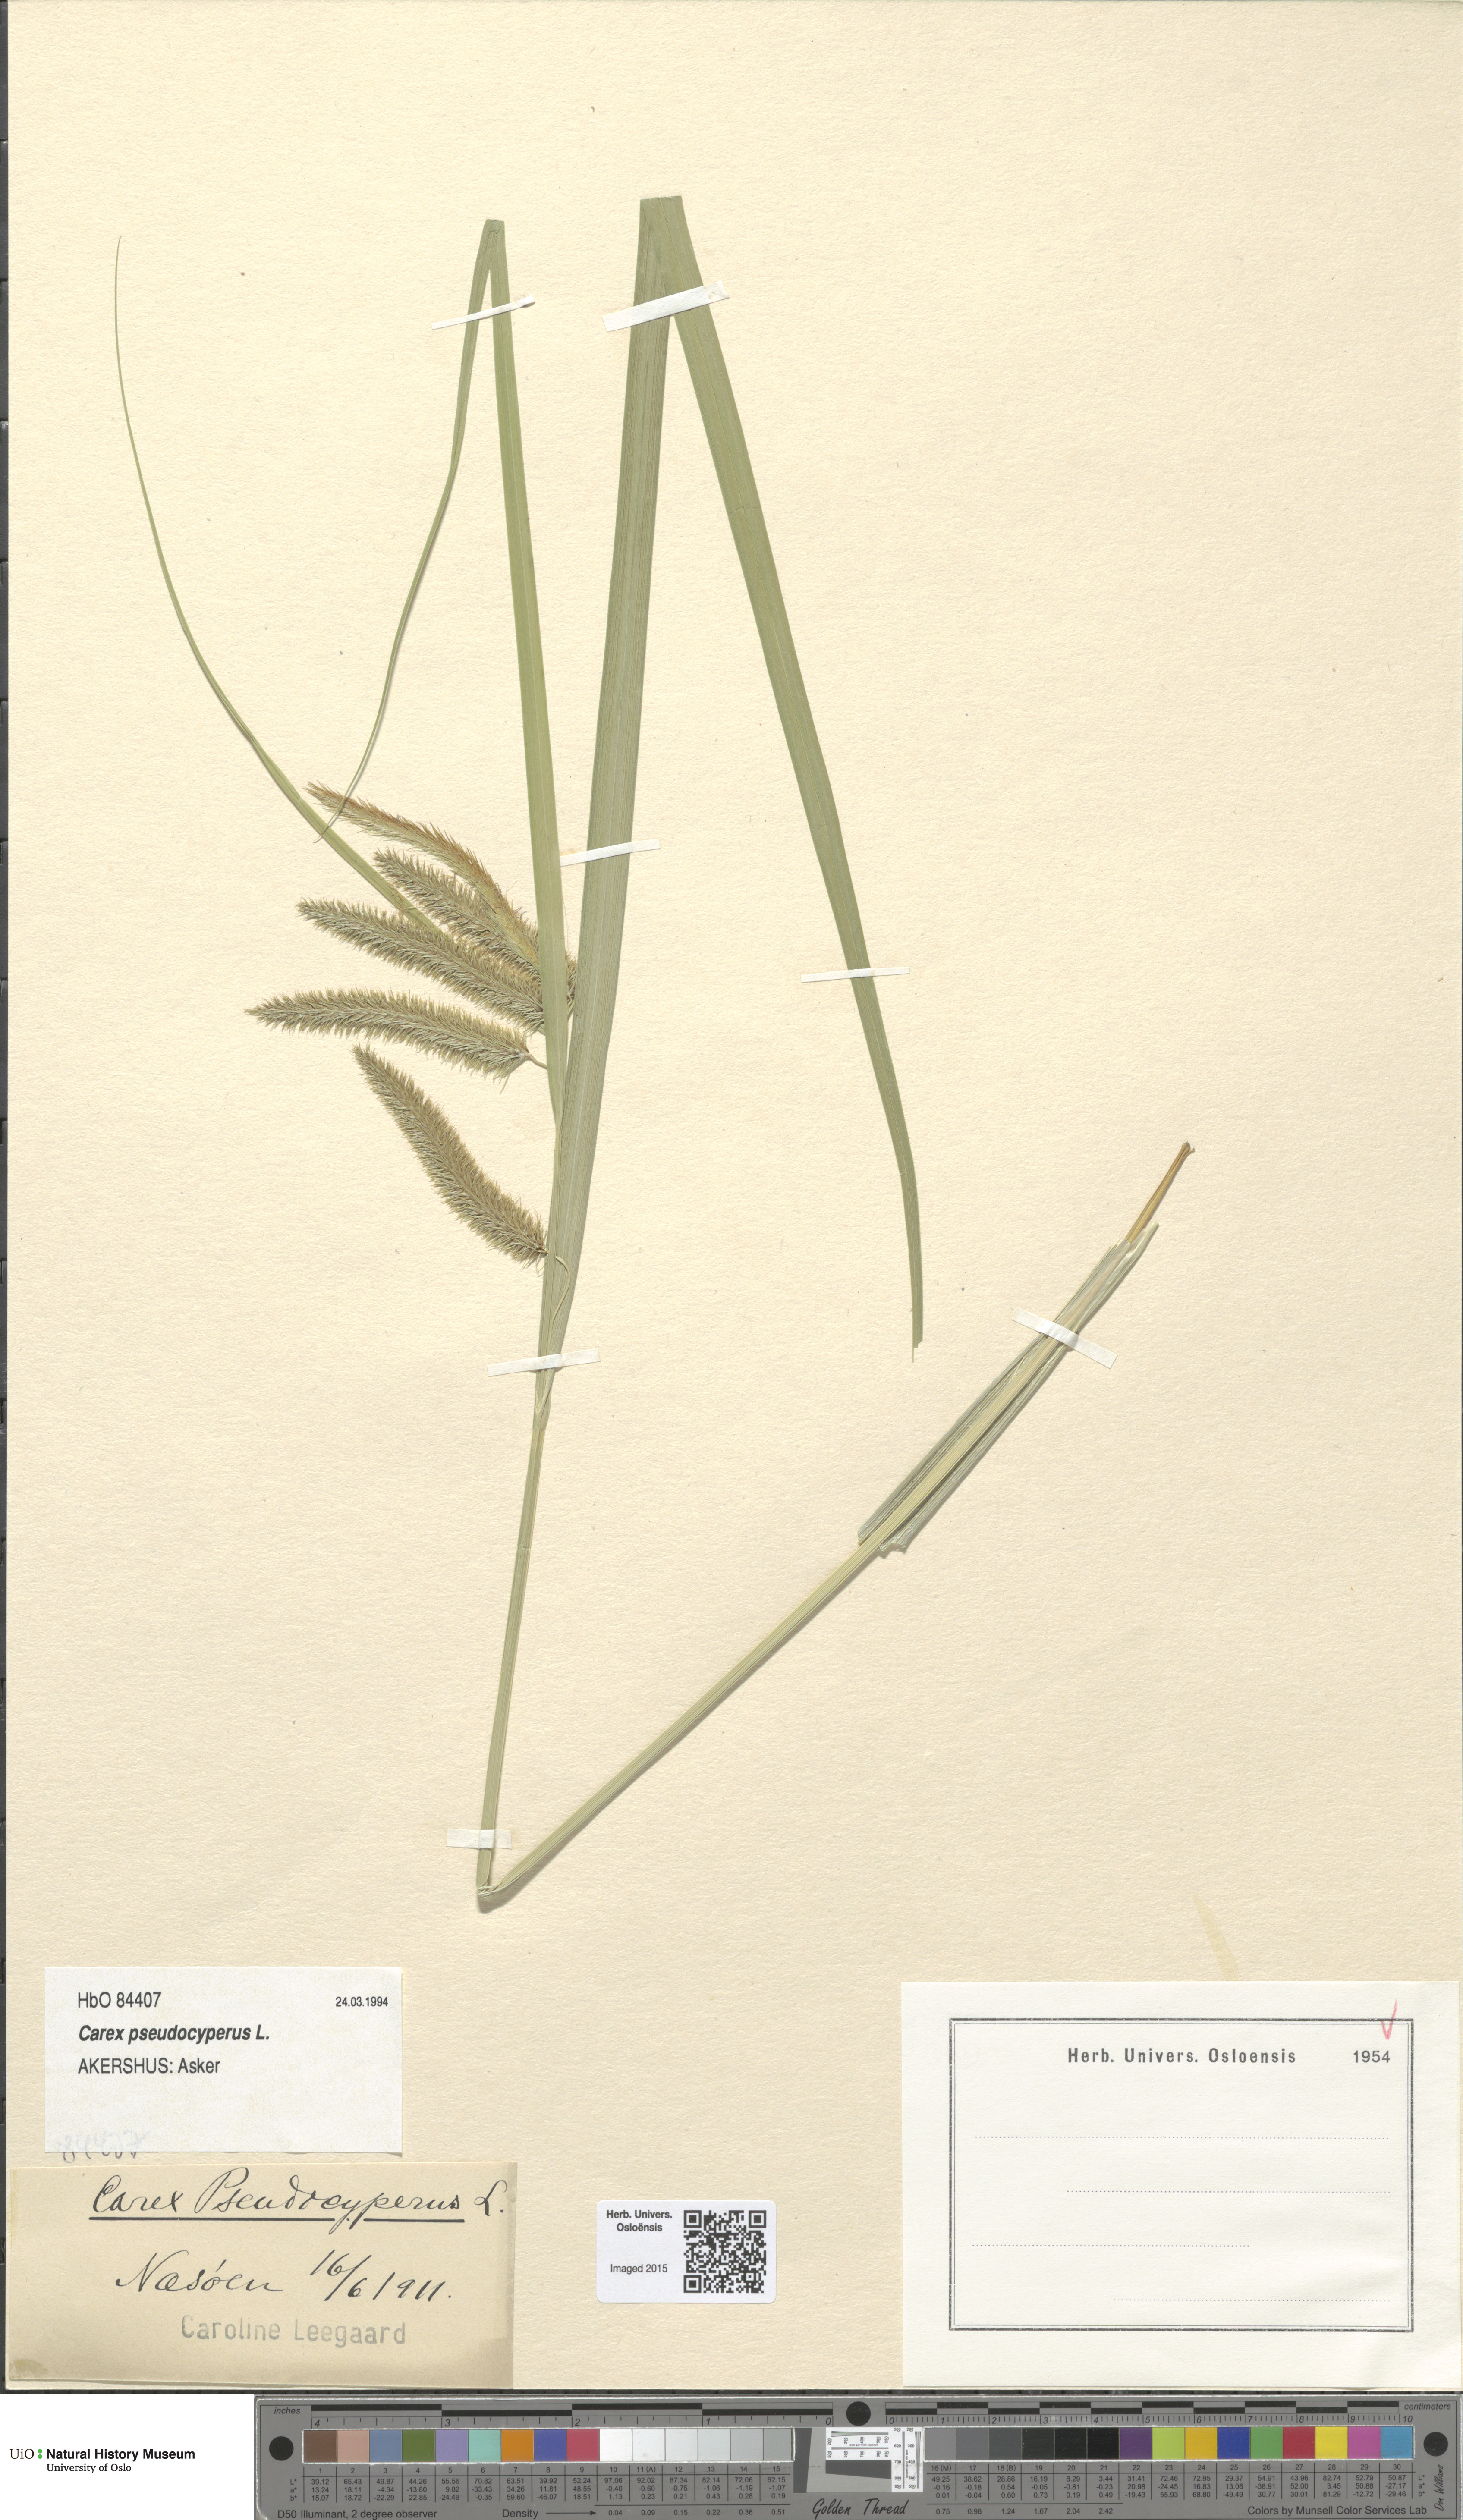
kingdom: Plantae
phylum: Tracheophyta
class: Liliopsida
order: Poales
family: Cyperaceae
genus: Carex
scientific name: Carex pseudocyperus
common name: Cyperus sedge
